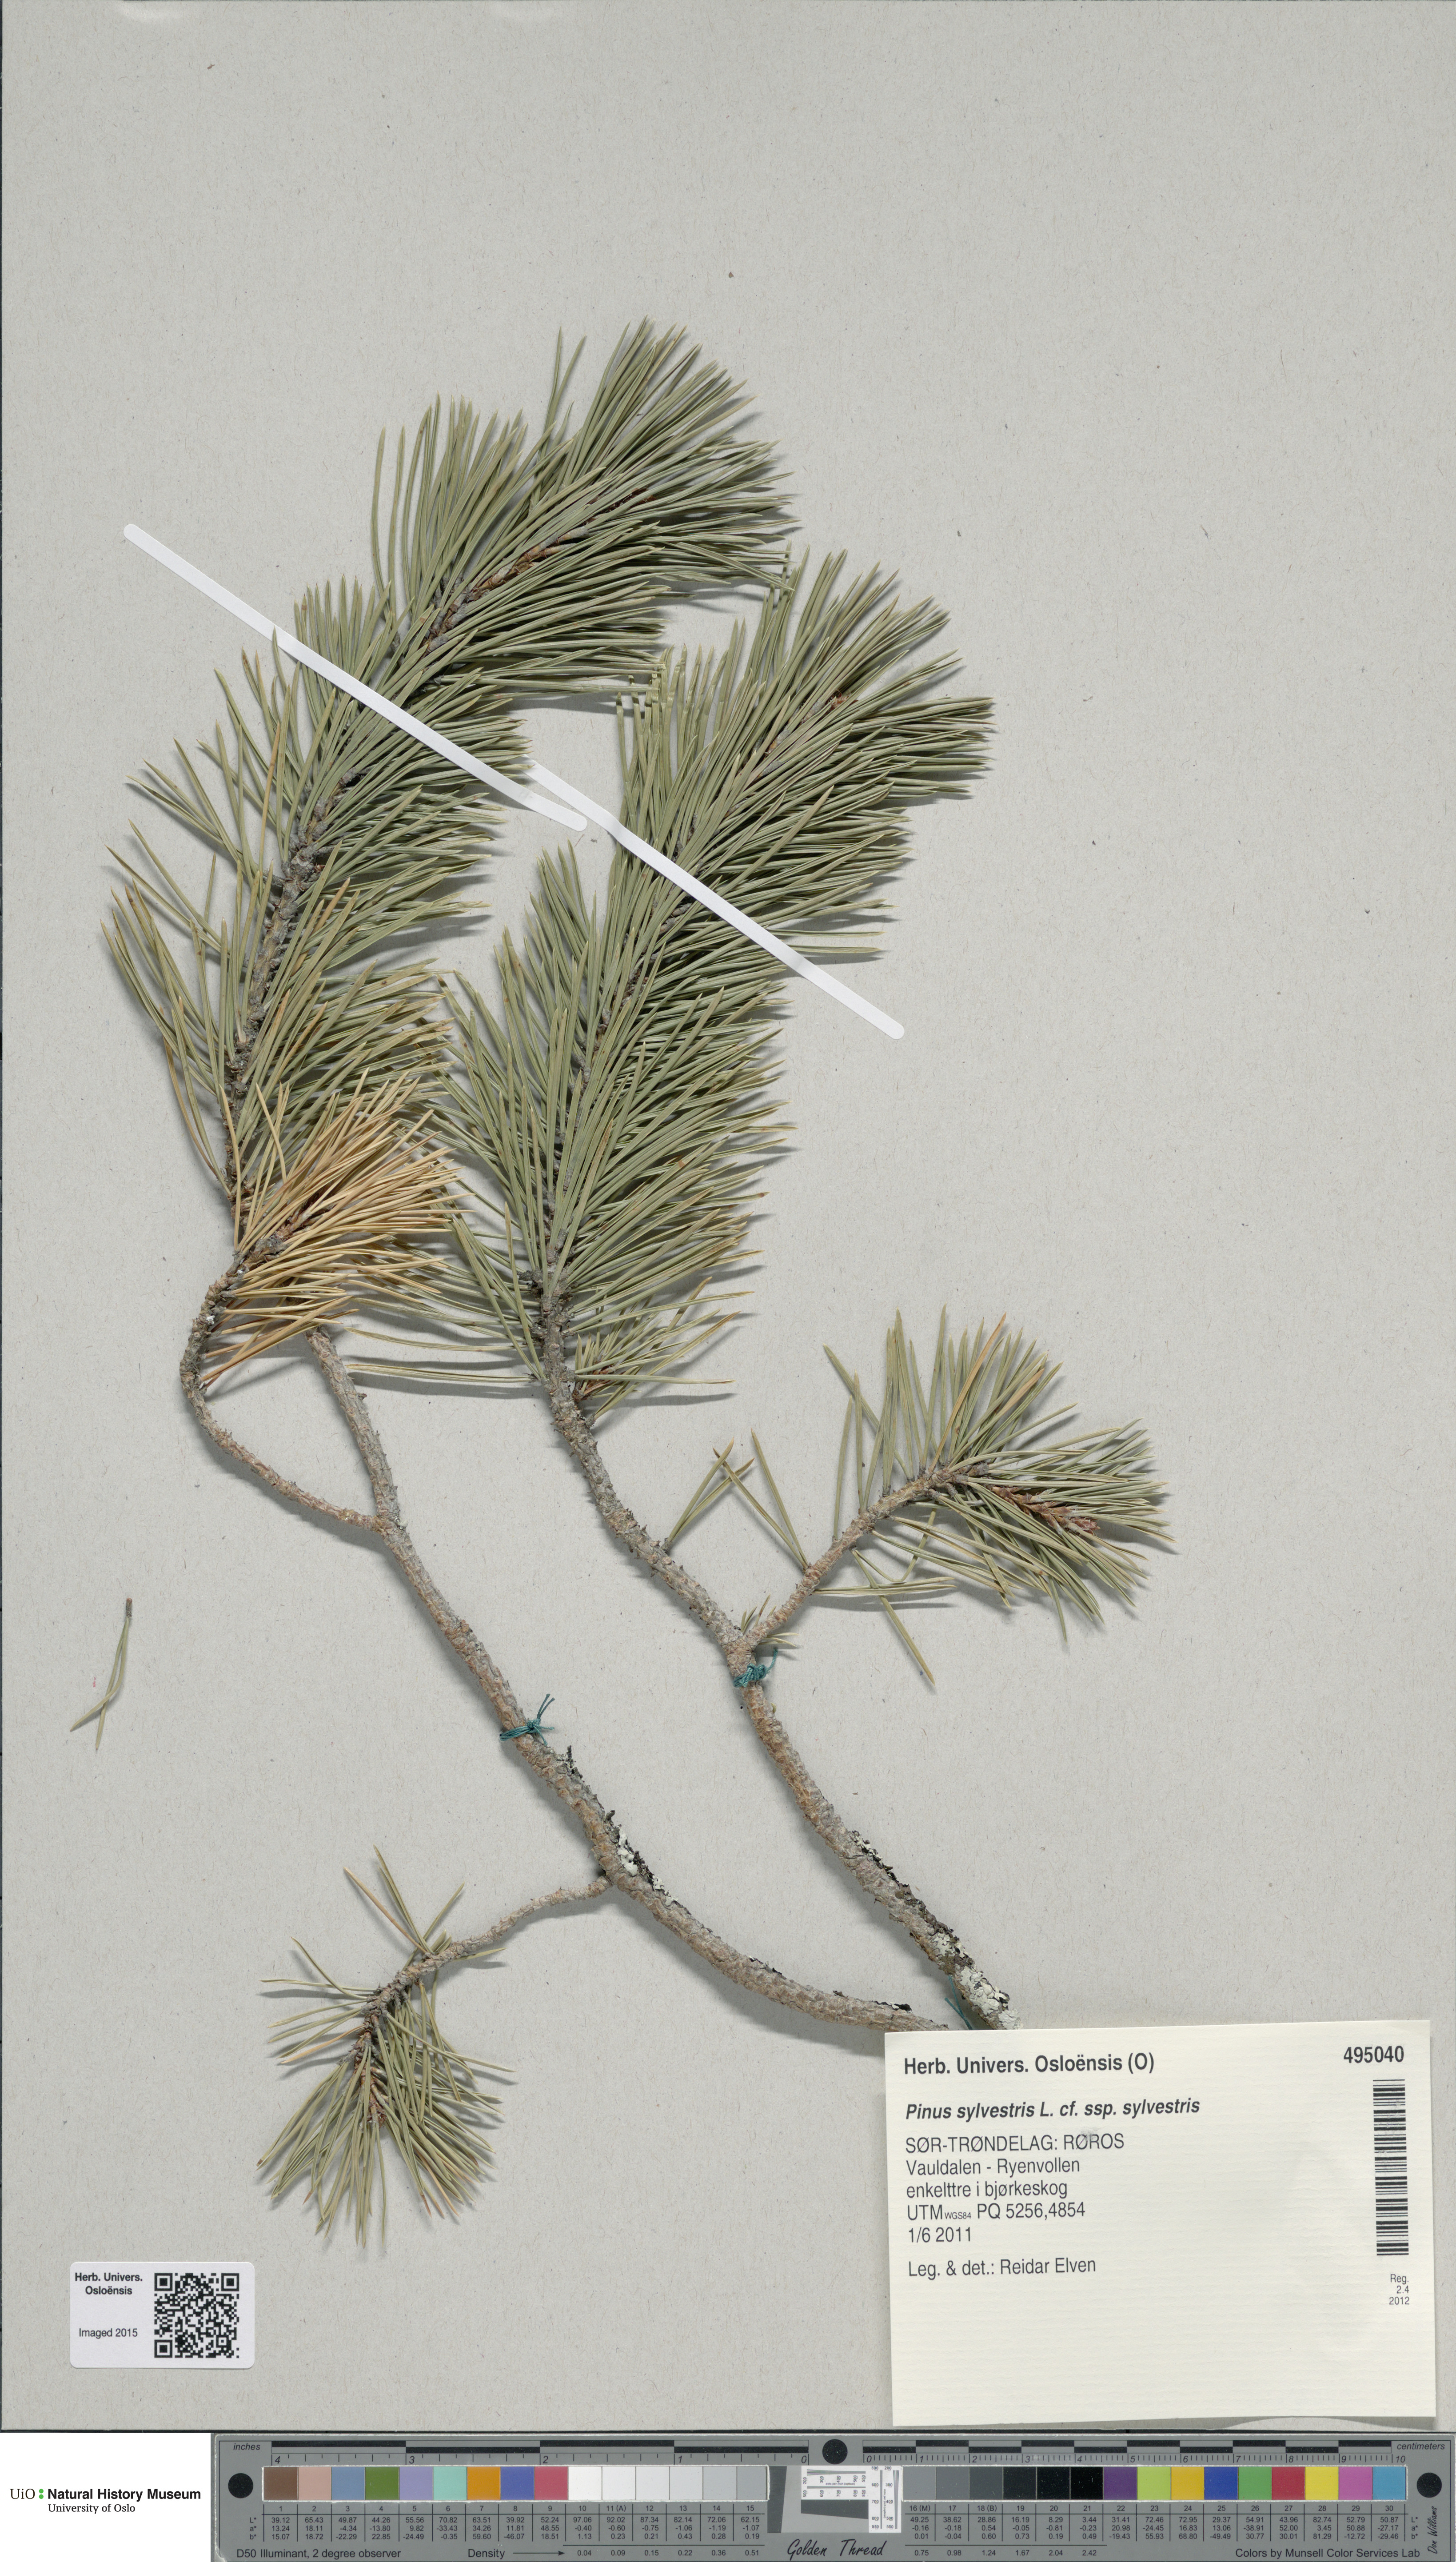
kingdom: Plantae
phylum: Tracheophyta
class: Pinopsida
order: Pinales
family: Pinaceae
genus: Pinus
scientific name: Pinus sylvestris
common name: Scots pine
